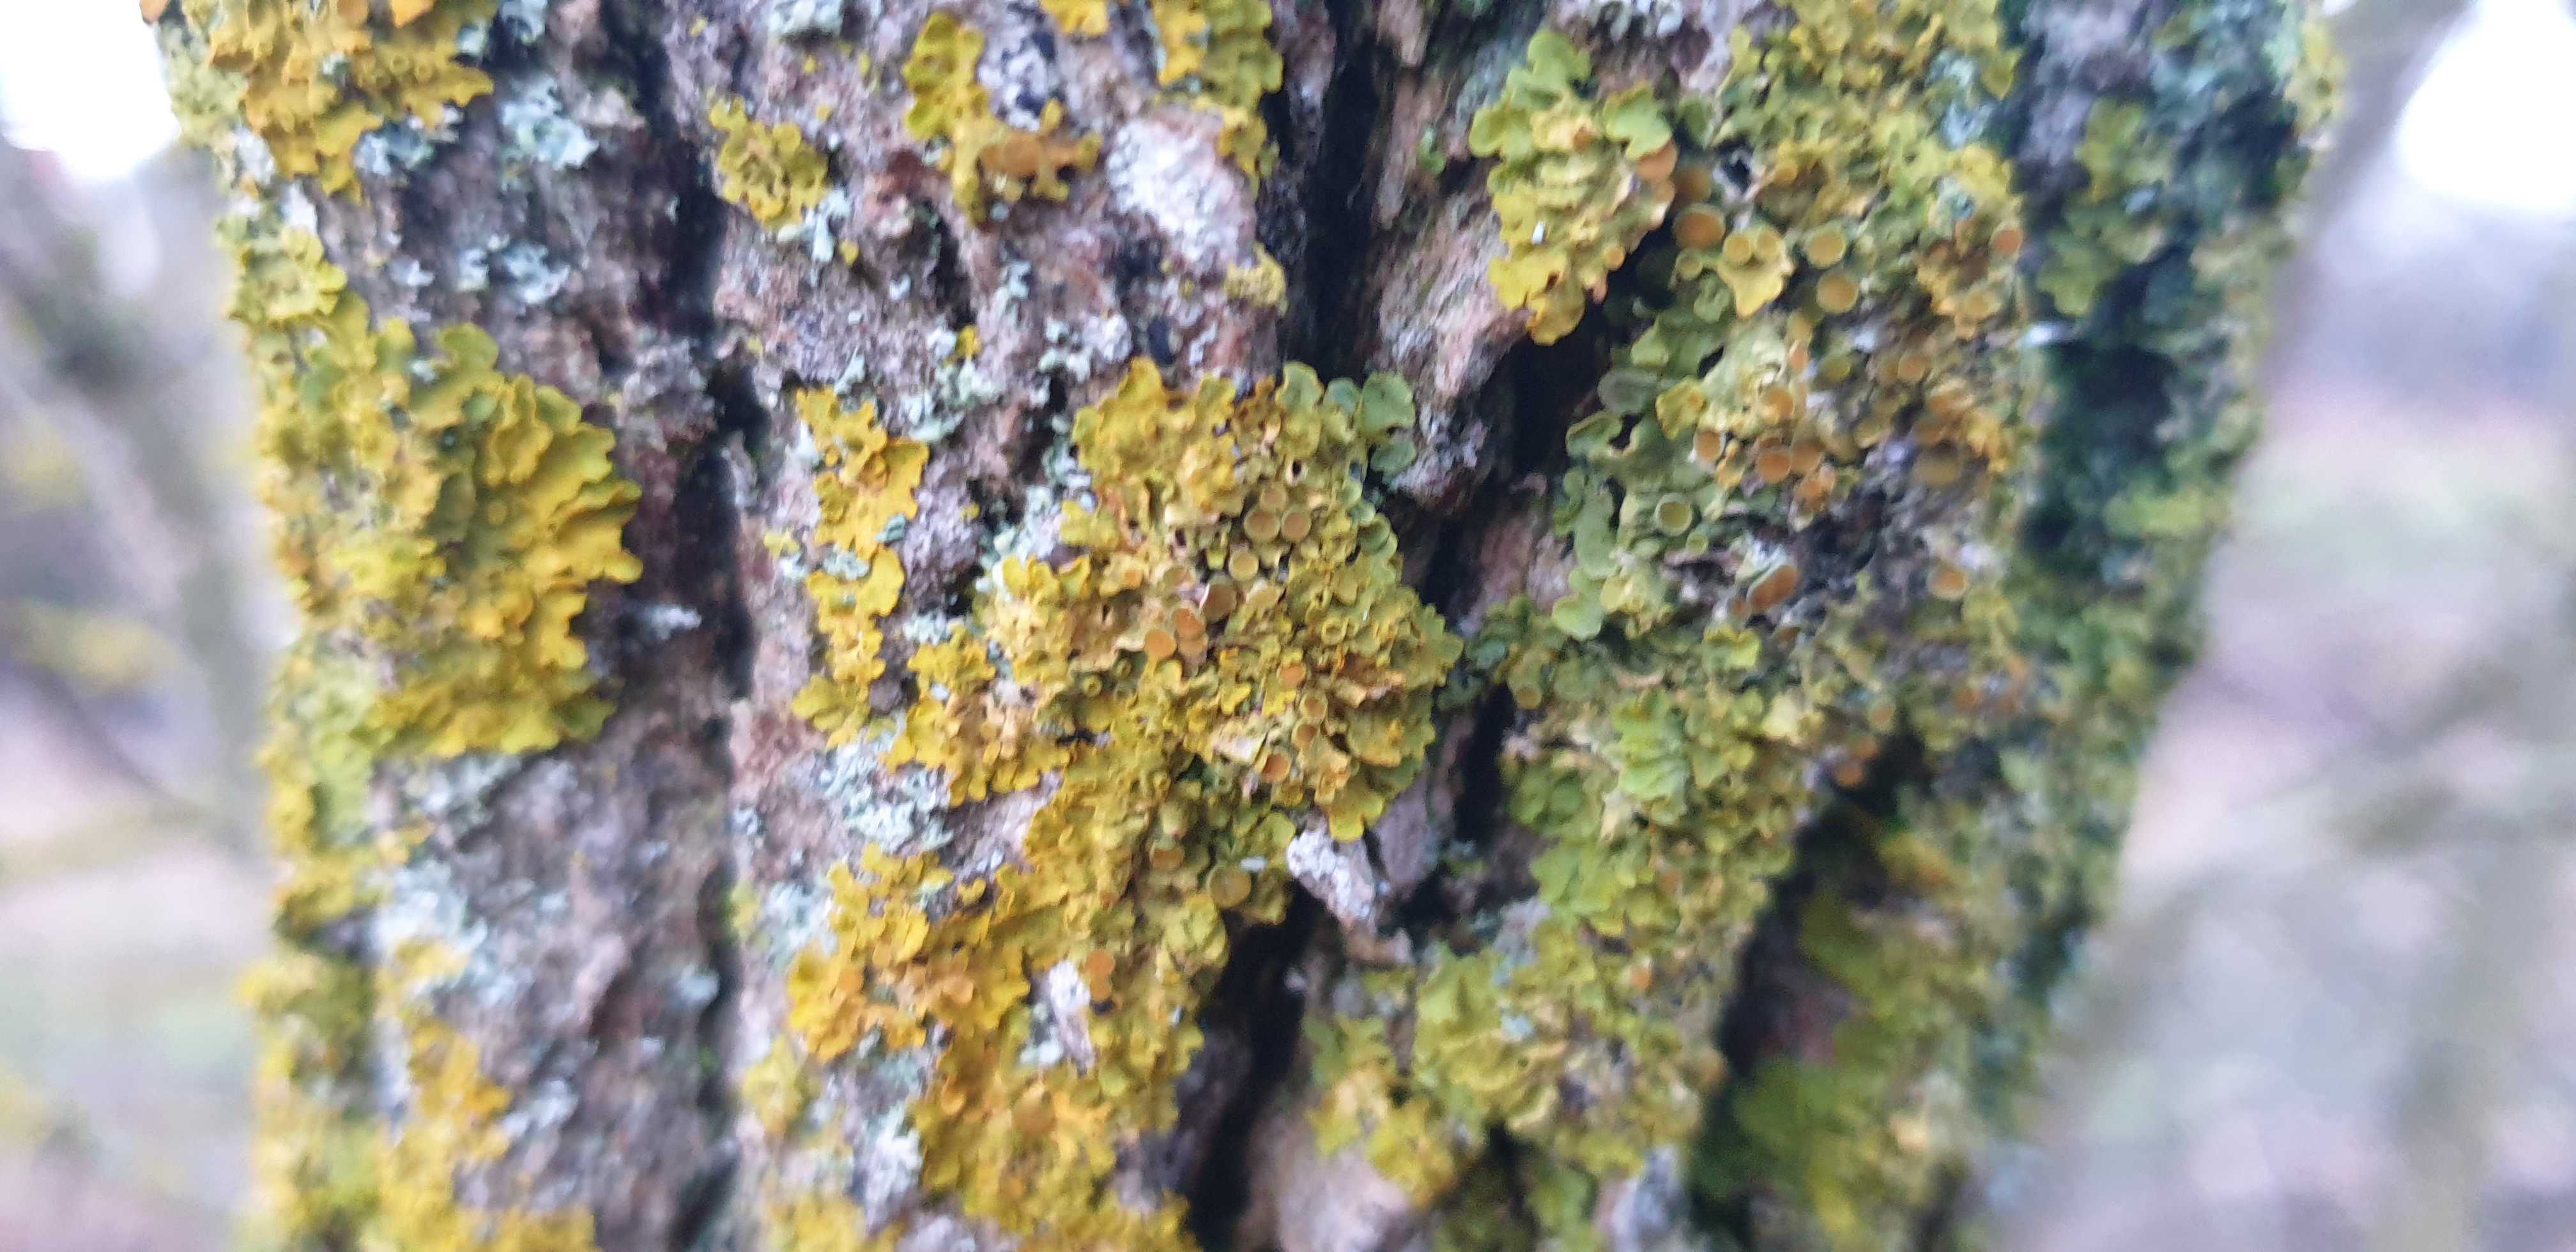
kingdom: Fungi
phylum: Ascomycota
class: Lecanoromycetes
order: Teloschistales
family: Teloschistaceae
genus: Xanthoria
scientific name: Xanthoria parietina
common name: almindelig væggelav
